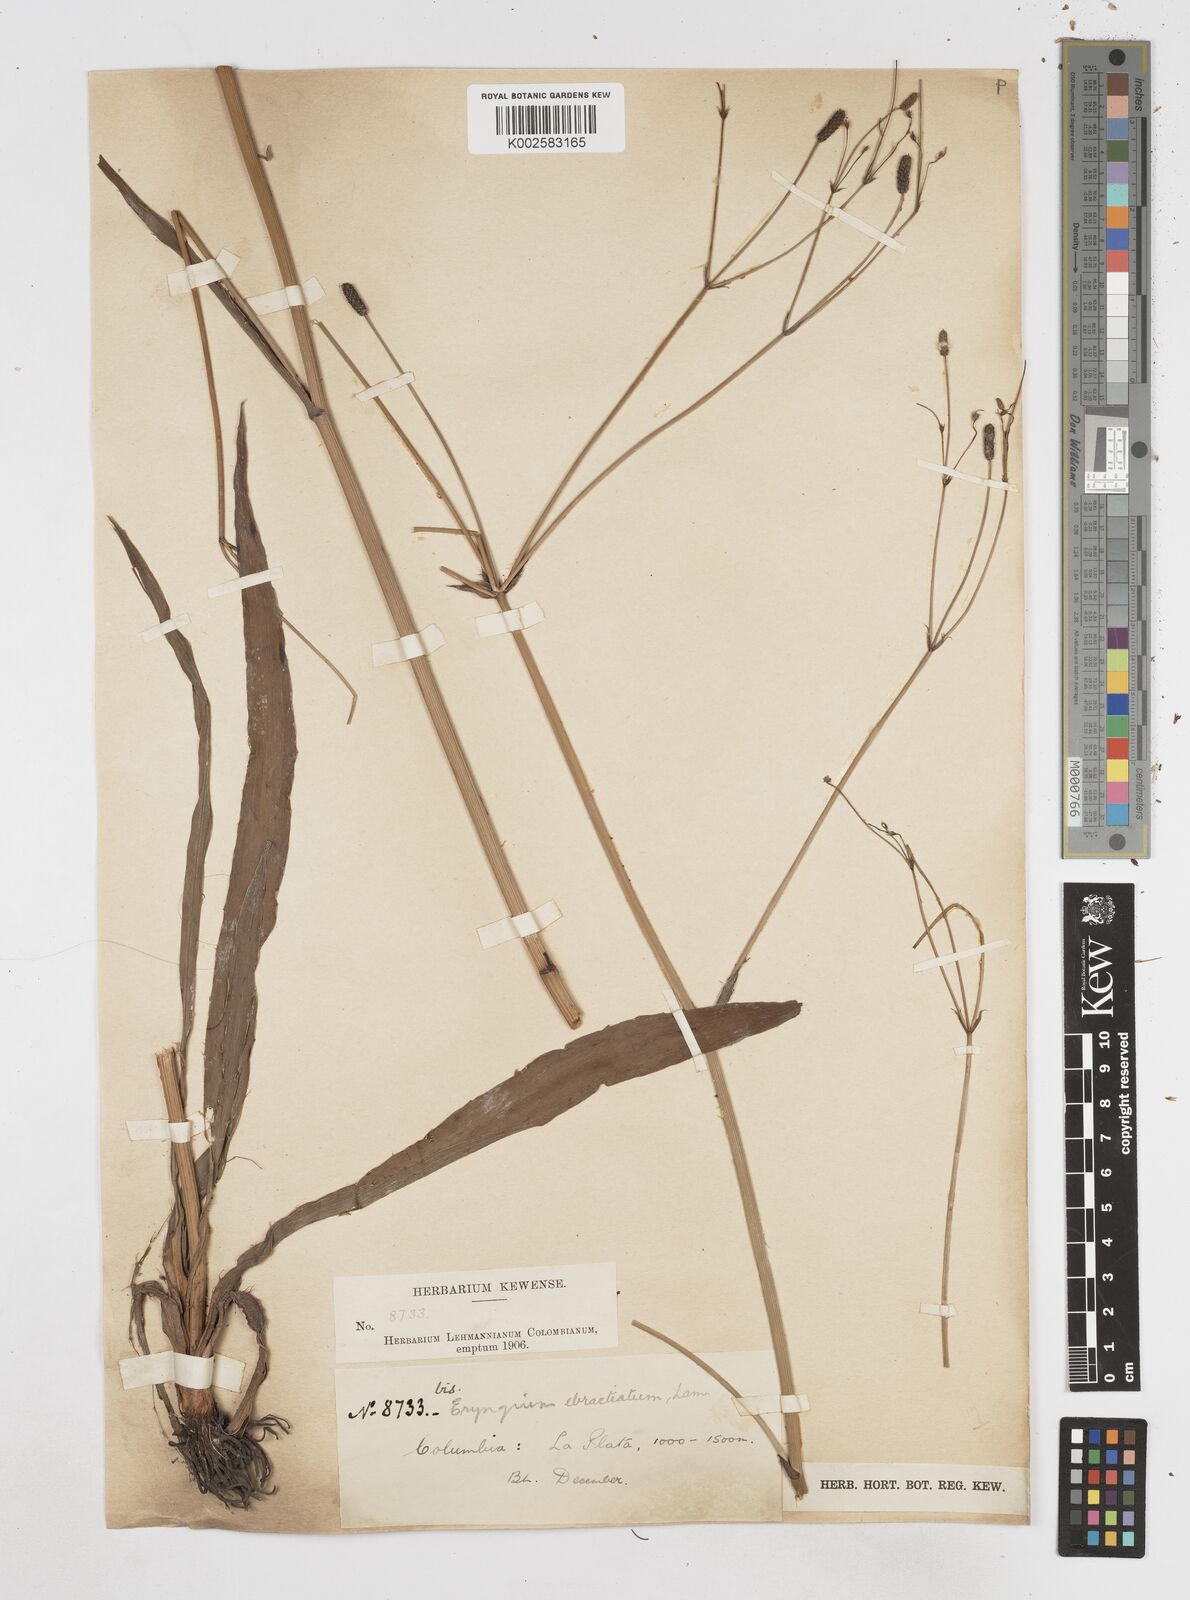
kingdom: Plantae
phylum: Tracheophyta
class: Magnoliopsida
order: Apiales
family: Apiaceae
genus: Eryngium
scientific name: Eryngium ebracteatum
